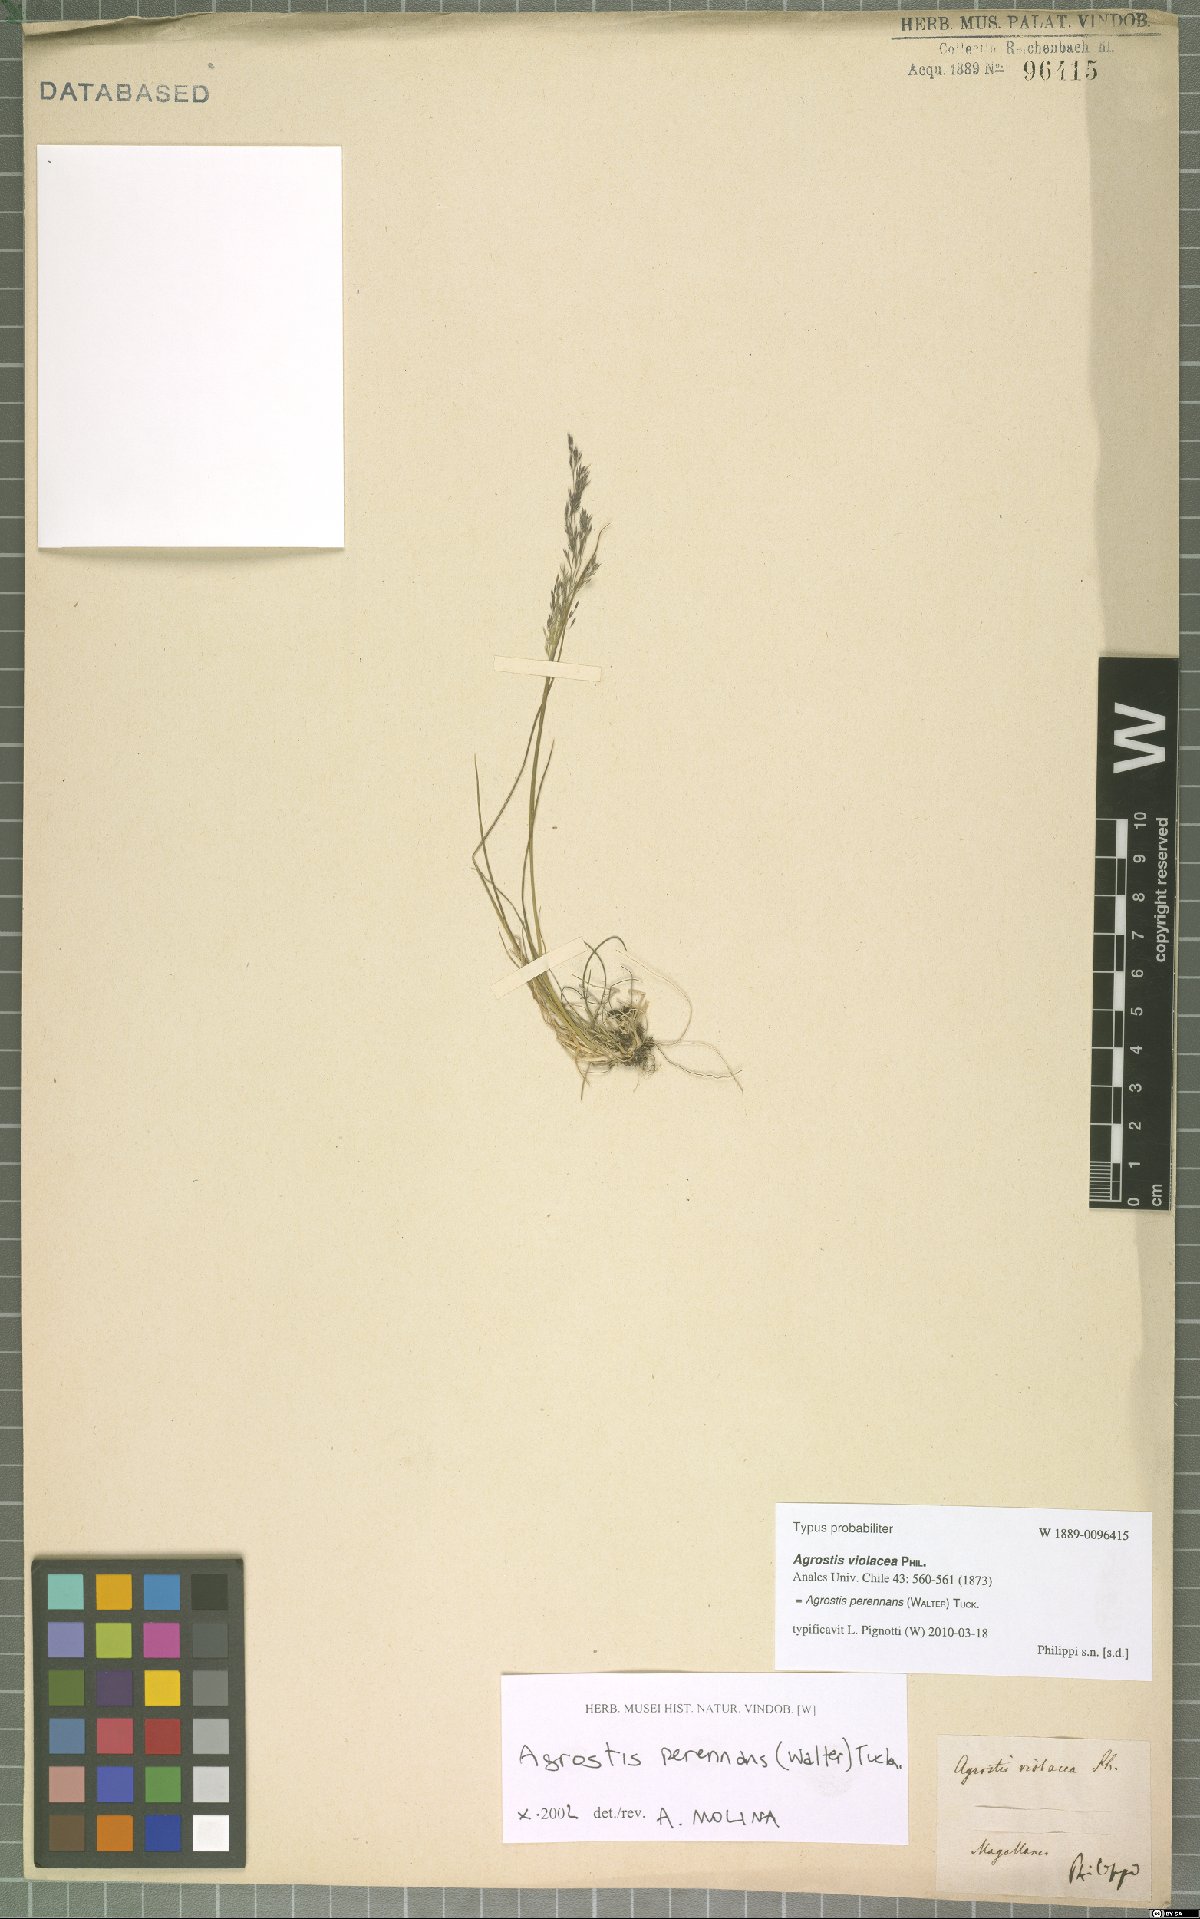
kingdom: Plantae
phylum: Tracheophyta
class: Liliopsida
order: Poales
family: Poaceae
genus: Agrostis
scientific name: Agrostis perennans
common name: Autumn bent
